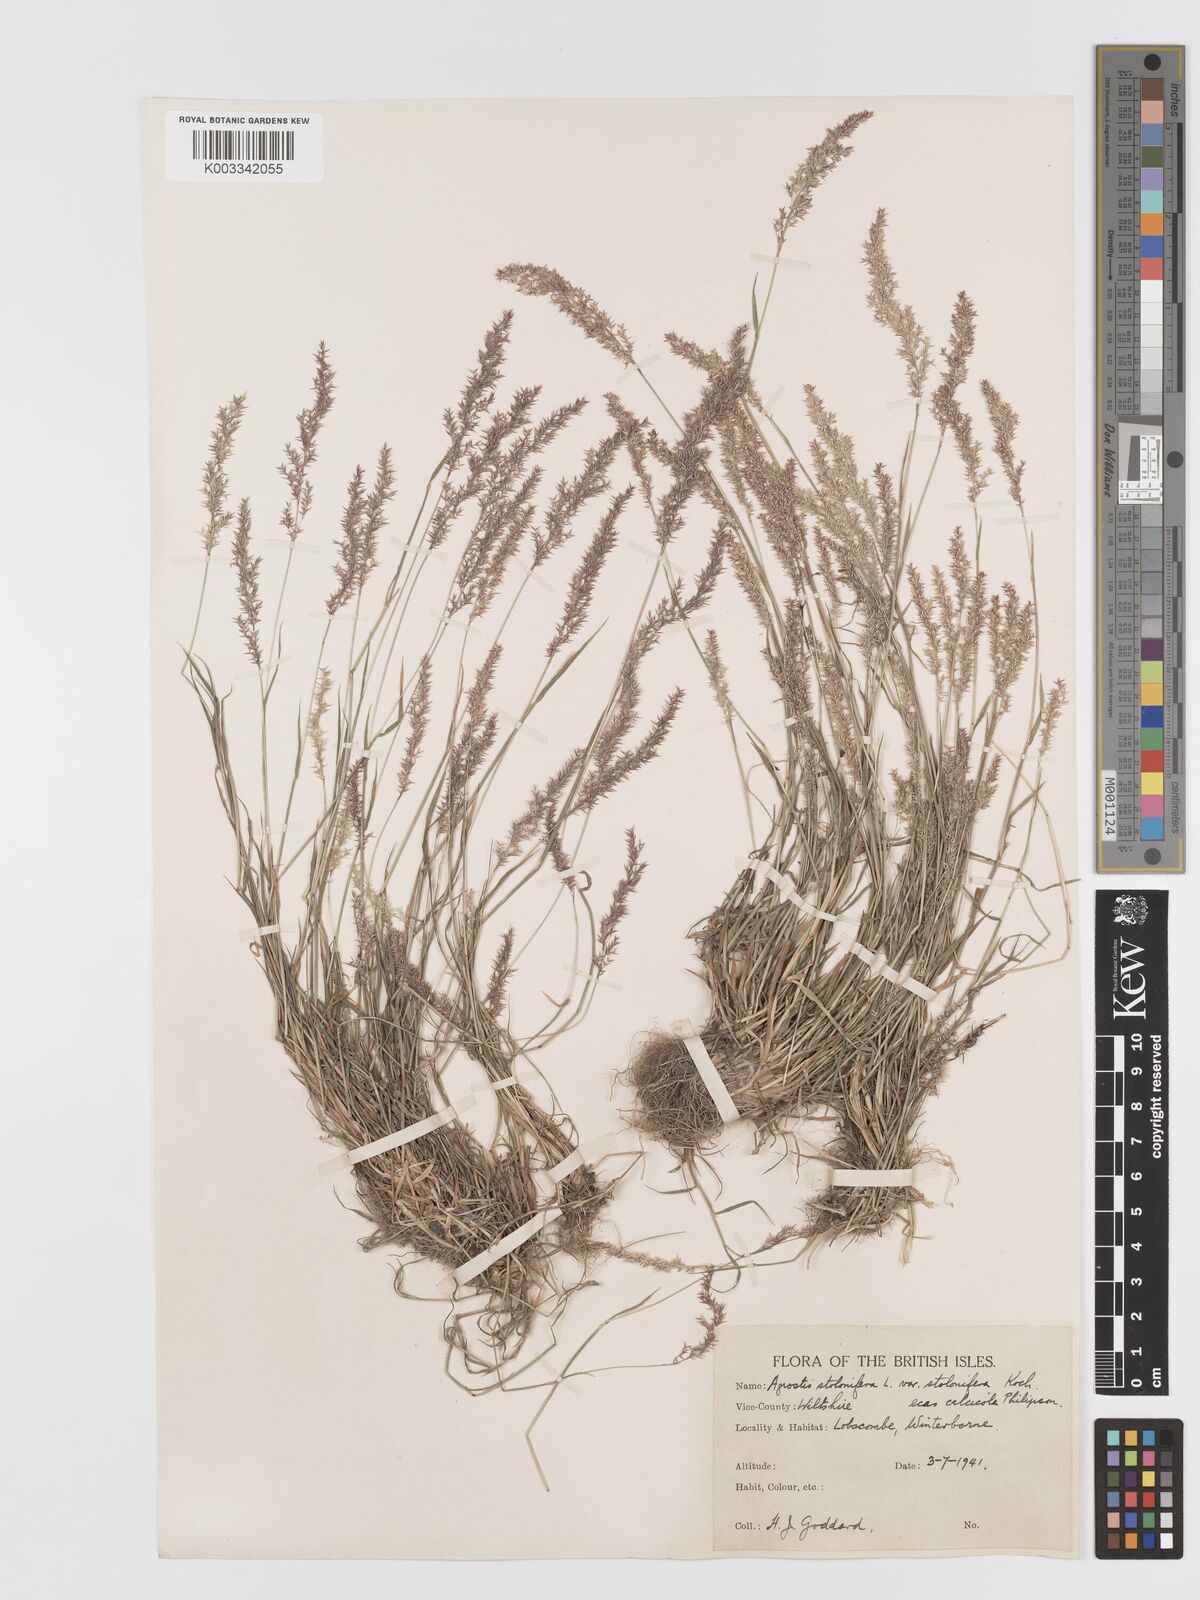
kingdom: Plantae
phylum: Tracheophyta
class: Liliopsida
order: Poales
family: Poaceae
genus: Agrostis
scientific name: Agrostis stolonifera
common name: Creeping bentgrass
